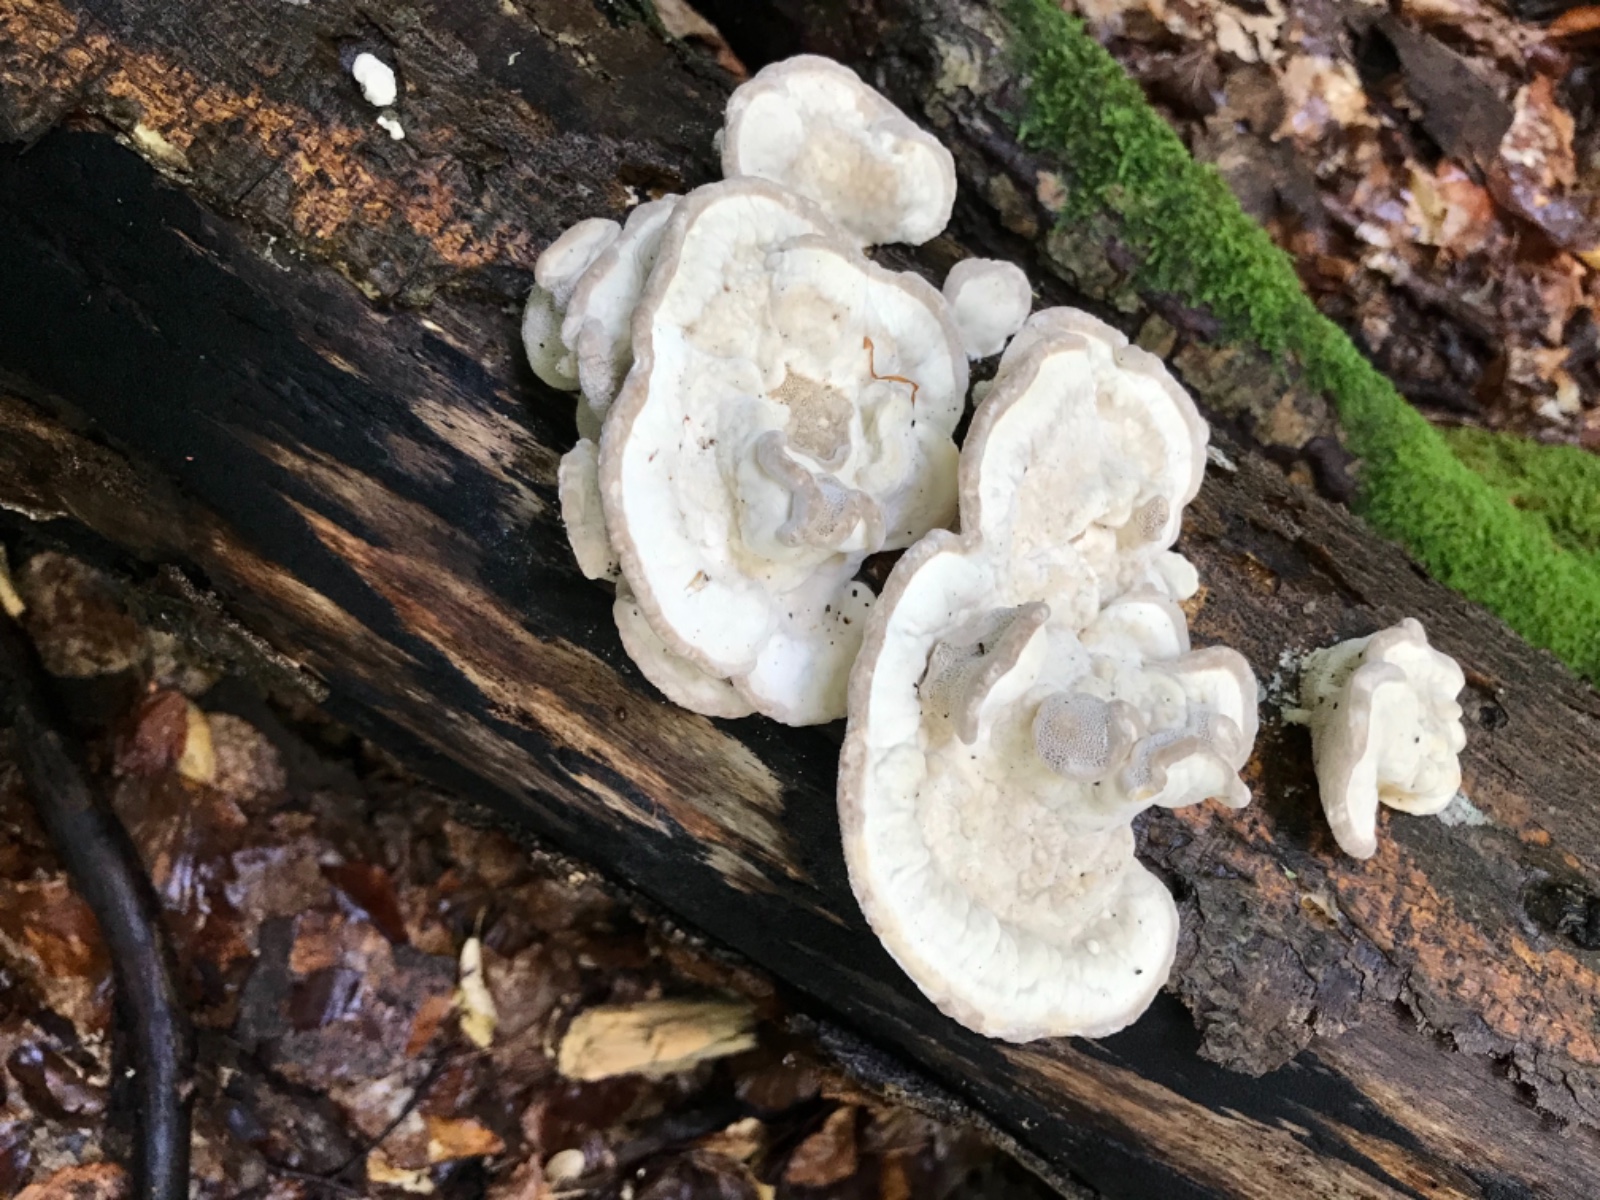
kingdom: Fungi
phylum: Basidiomycota
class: Agaricomycetes
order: Polyporales
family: Polyporaceae
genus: Trametes
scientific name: Trametes gibbosa
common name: puklet læderporesvamp
